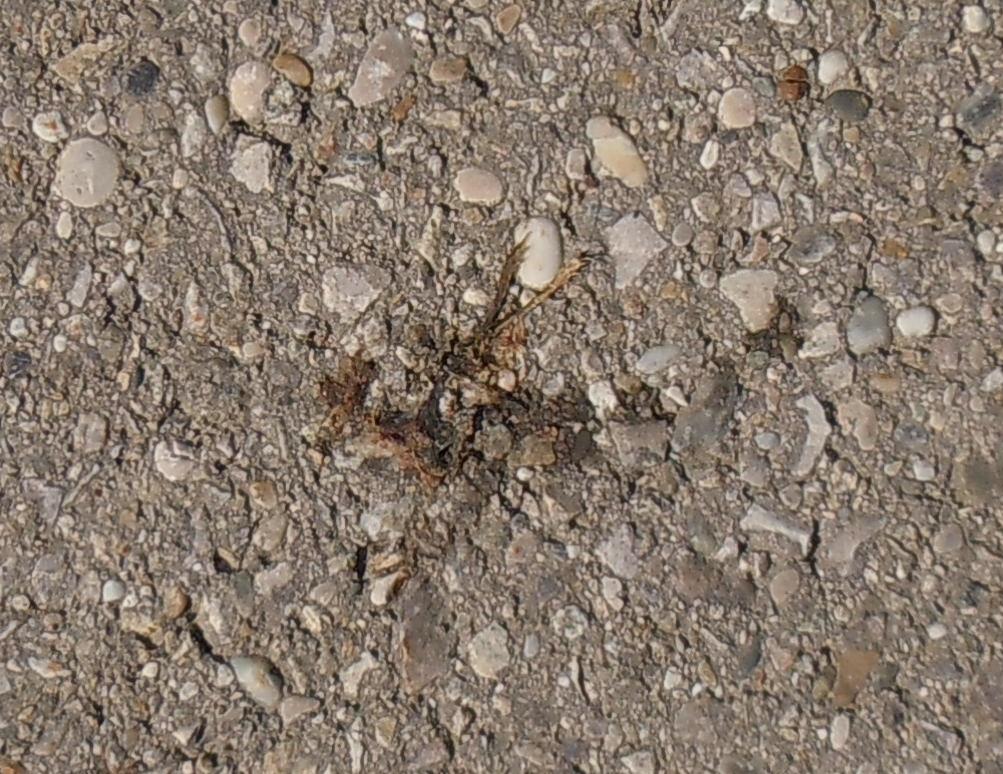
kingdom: Animalia
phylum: Chordata
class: Amphibia
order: Anura
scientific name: Anura
